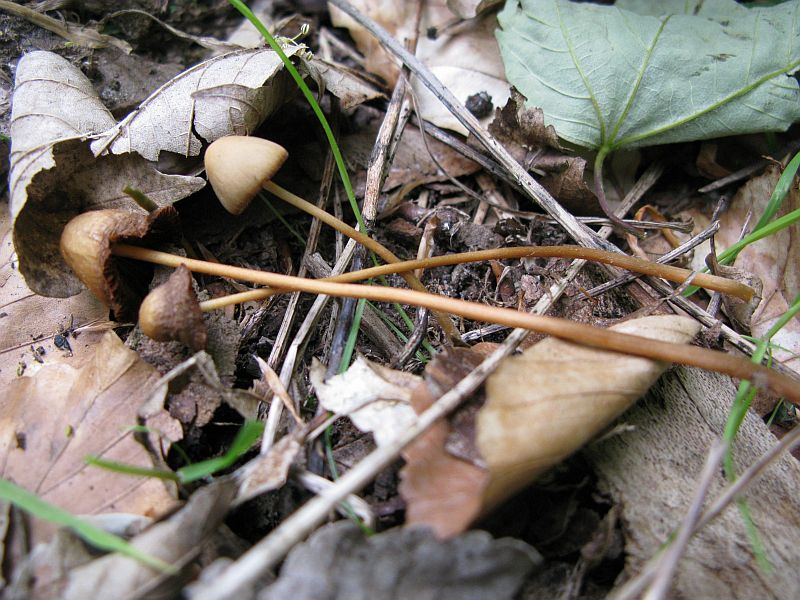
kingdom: Fungi
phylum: Basidiomycota
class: Agaricomycetes
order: Agaricales
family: Bolbitiaceae
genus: Conocybe
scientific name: Conocybe subpubescens
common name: krat-keglehat
